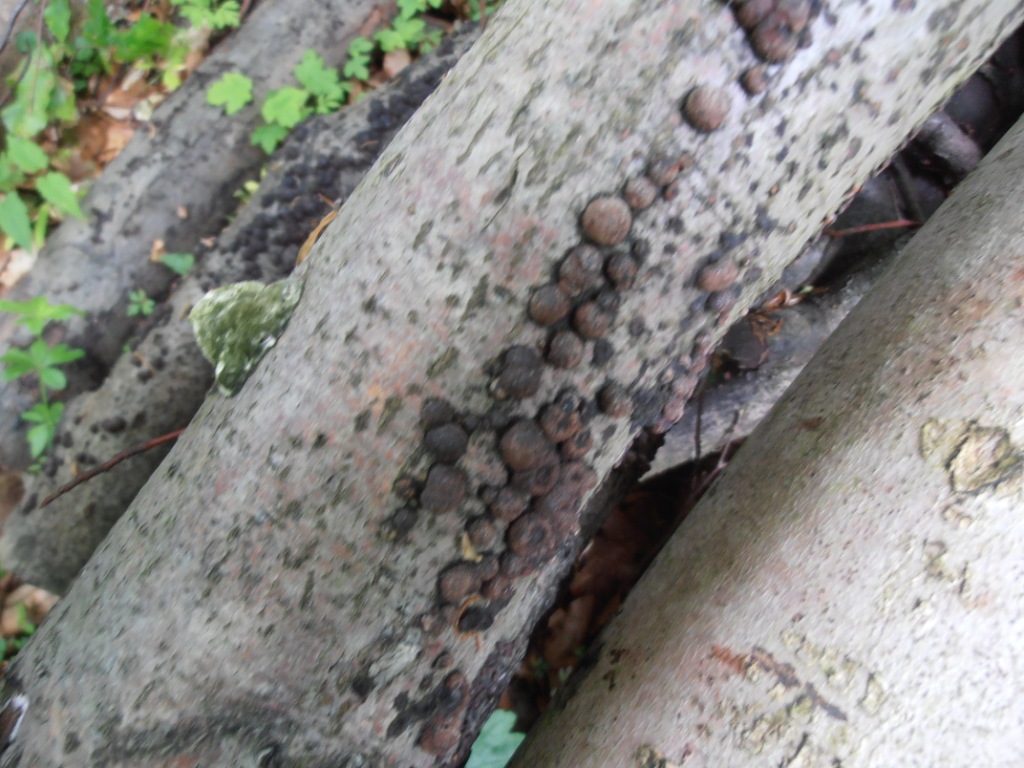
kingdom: Fungi
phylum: Ascomycota
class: Sordariomycetes
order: Xylariales
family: Hypoxylaceae
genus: Hypoxylon
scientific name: Hypoxylon fragiforme
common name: kuljordbær
